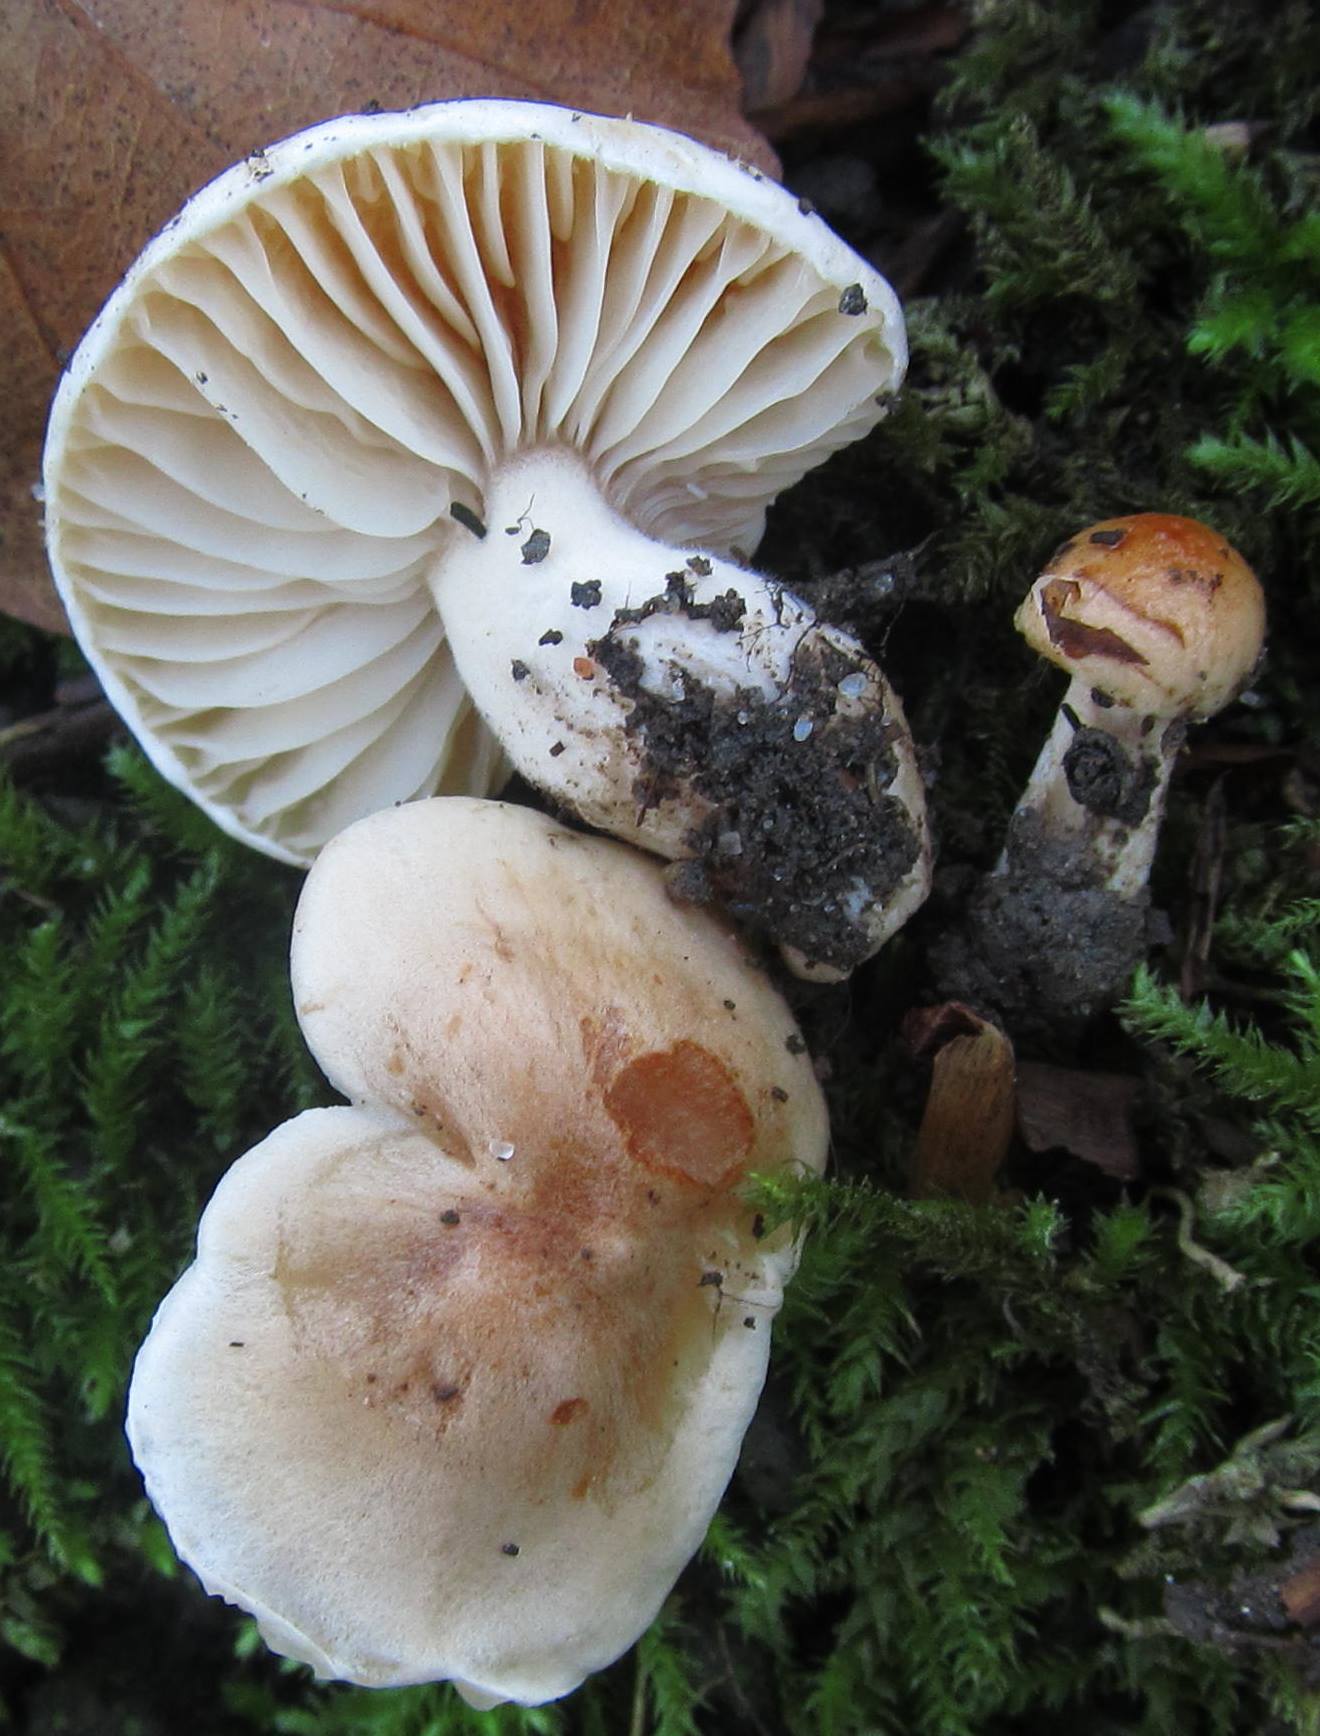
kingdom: Fungi
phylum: Basidiomycota
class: Agaricomycetes
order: Agaricales
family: Hygrophoraceae
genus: Hygrophorus
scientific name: Hygrophorus
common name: sneglehat
